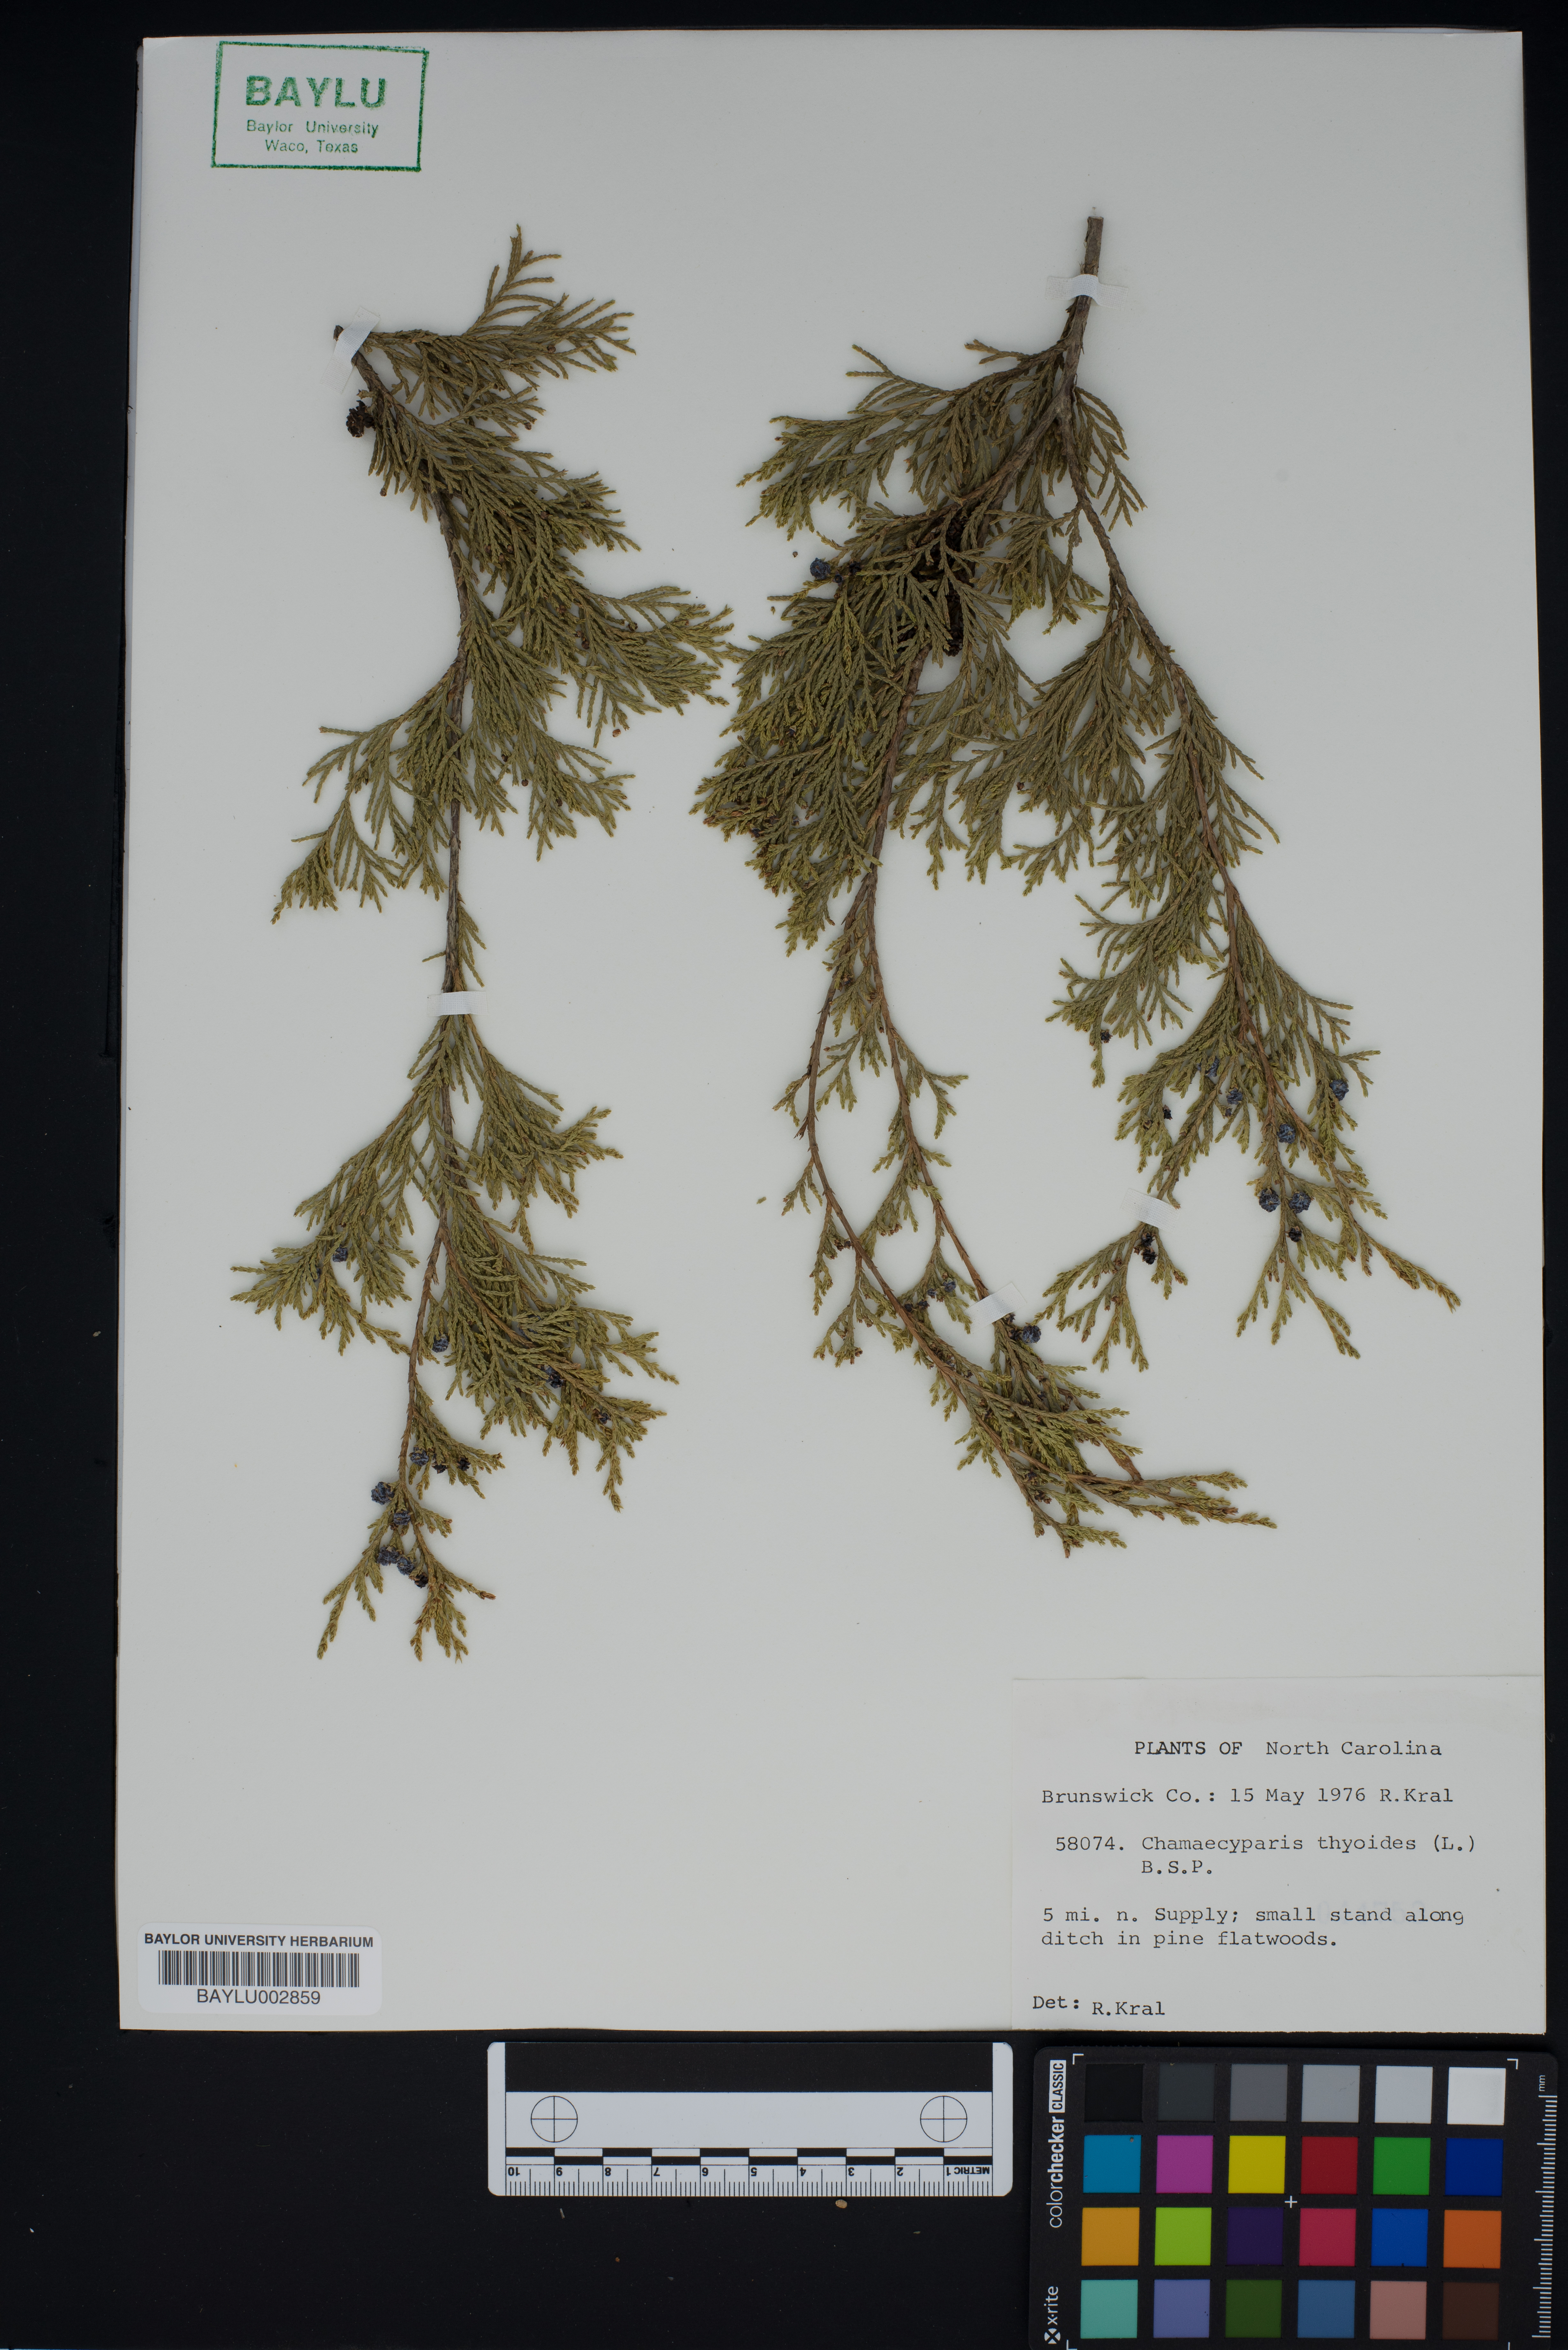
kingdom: Plantae
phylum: Tracheophyta
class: Pinopsida
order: Pinales
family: Cupressaceae
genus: Chamaecyparis
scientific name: Chamaecyparis thyoides
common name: Atlantic white cedar
